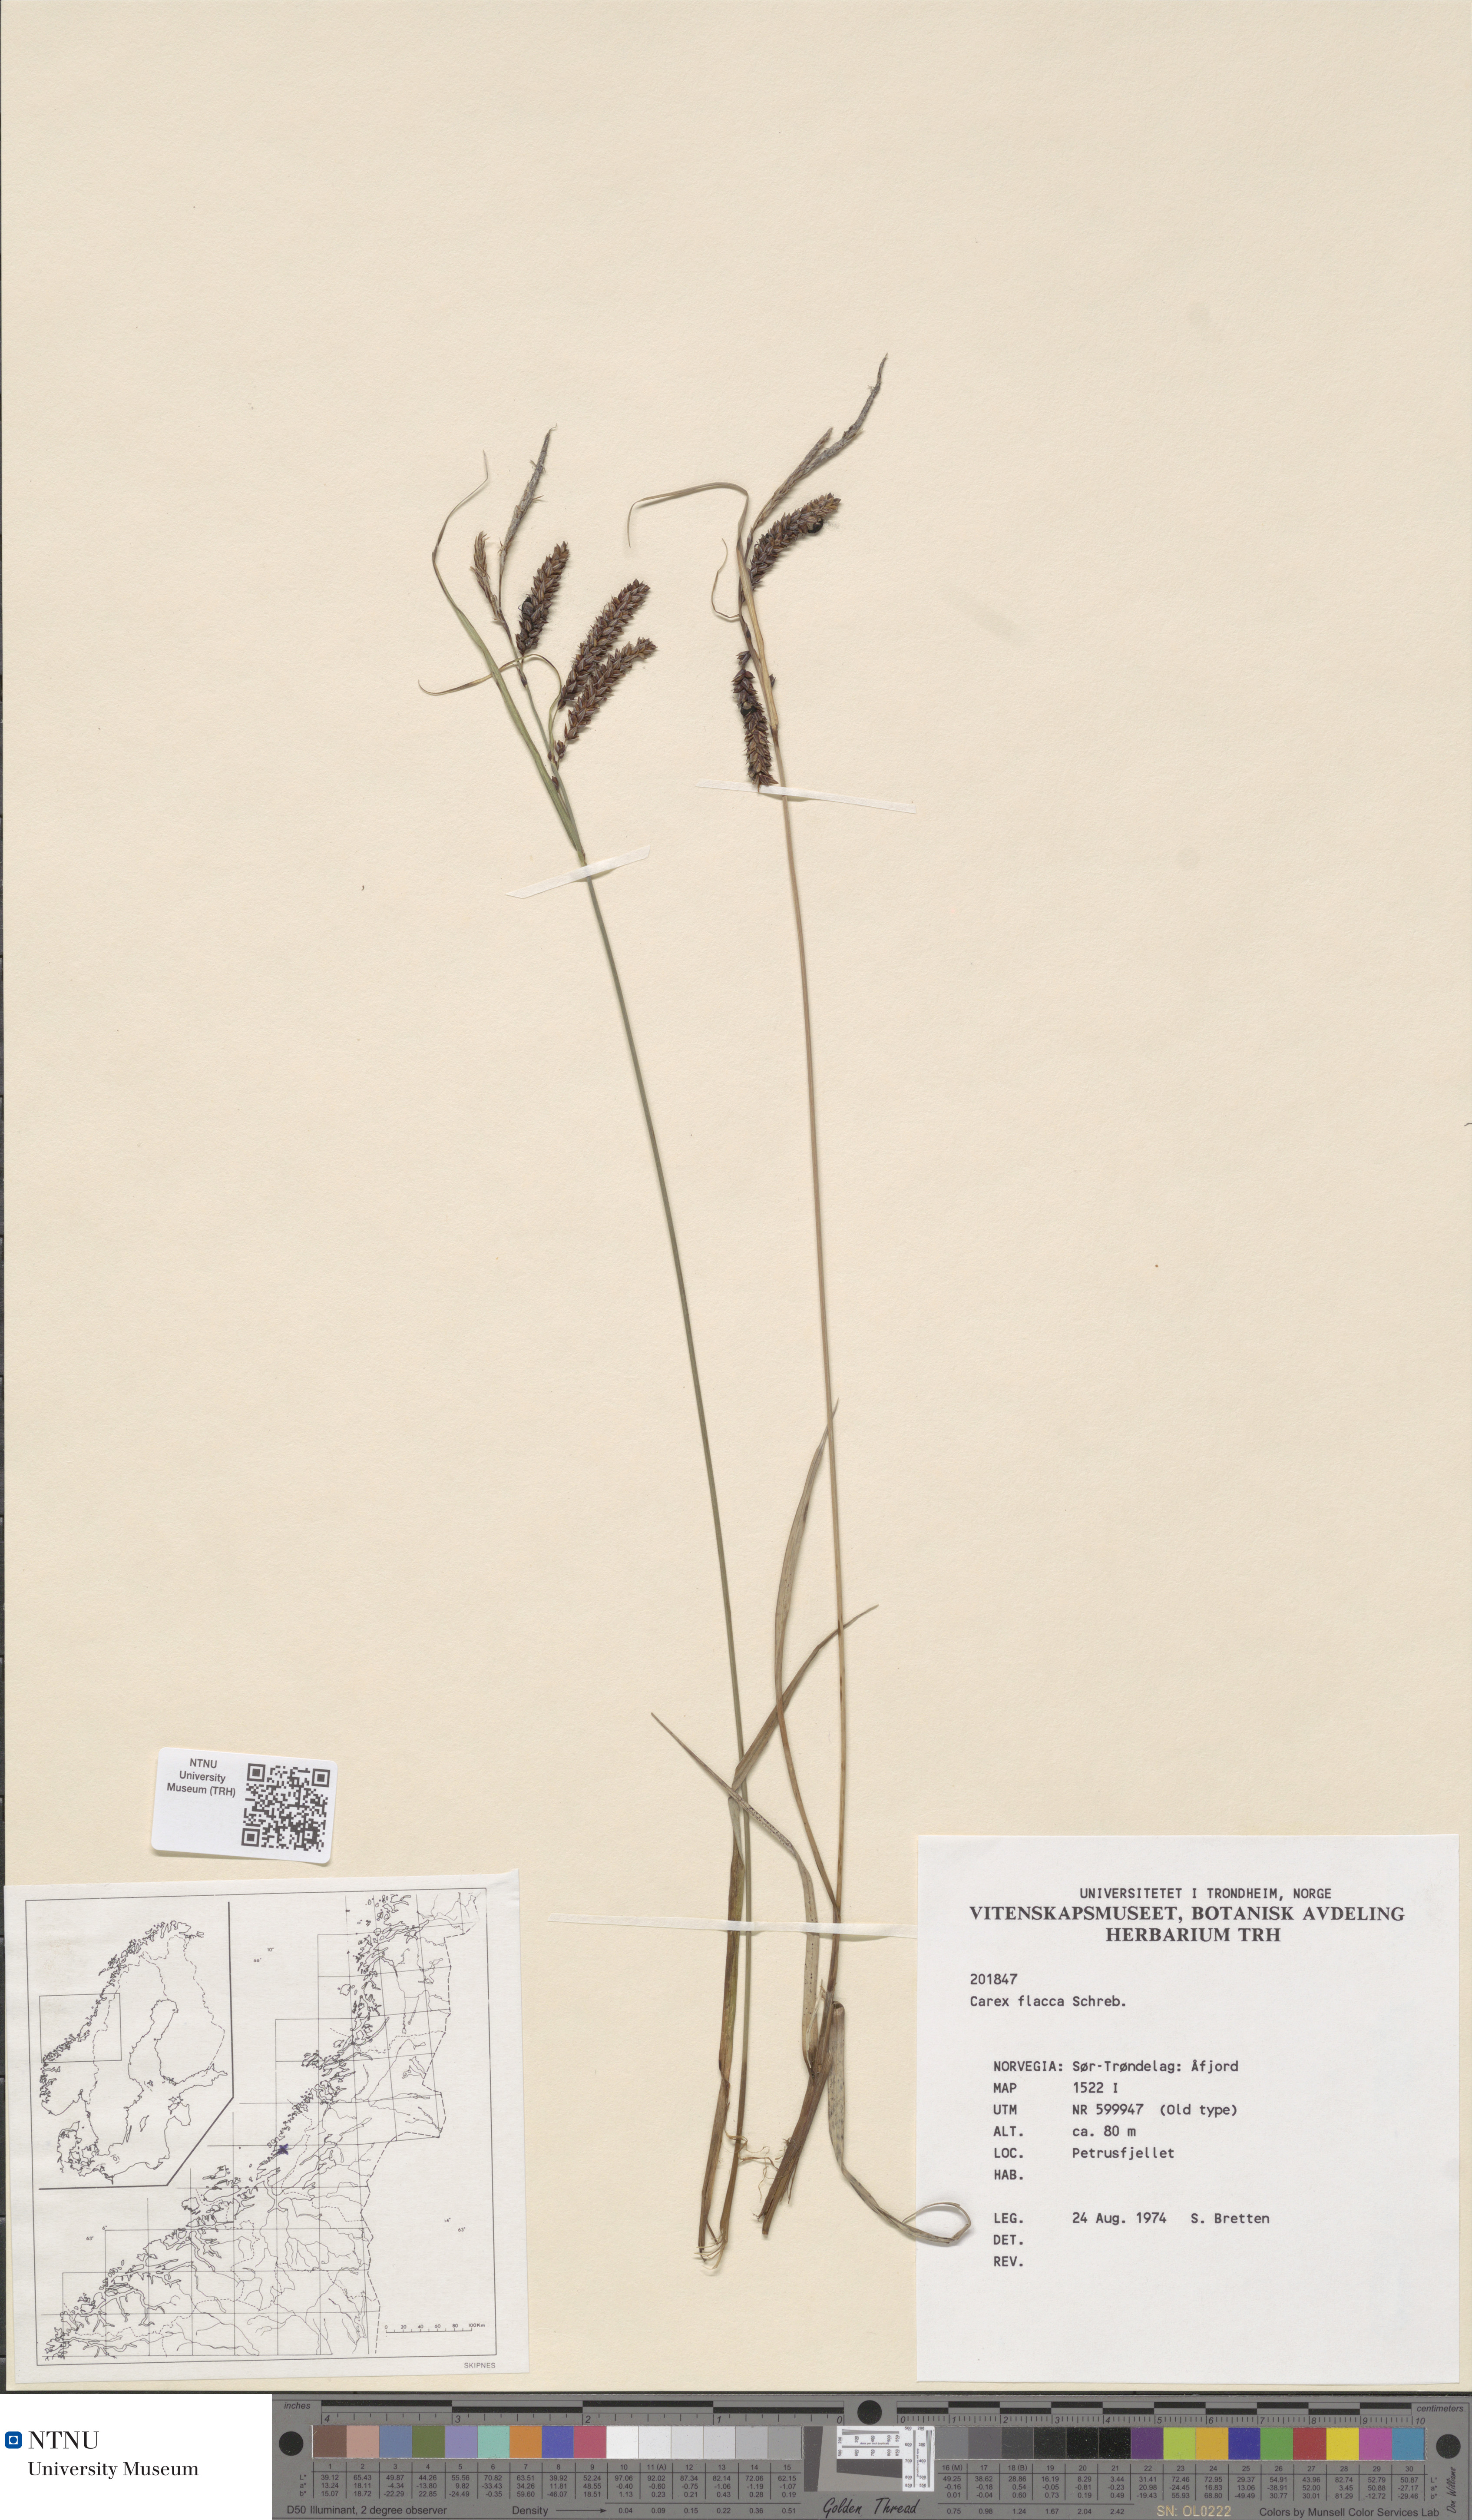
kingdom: Plantae
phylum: Tracheophyta
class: Liliopsida
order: Poales
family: Cyperaceae
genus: Carex
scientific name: Carex flacca
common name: Glaucous sedge
